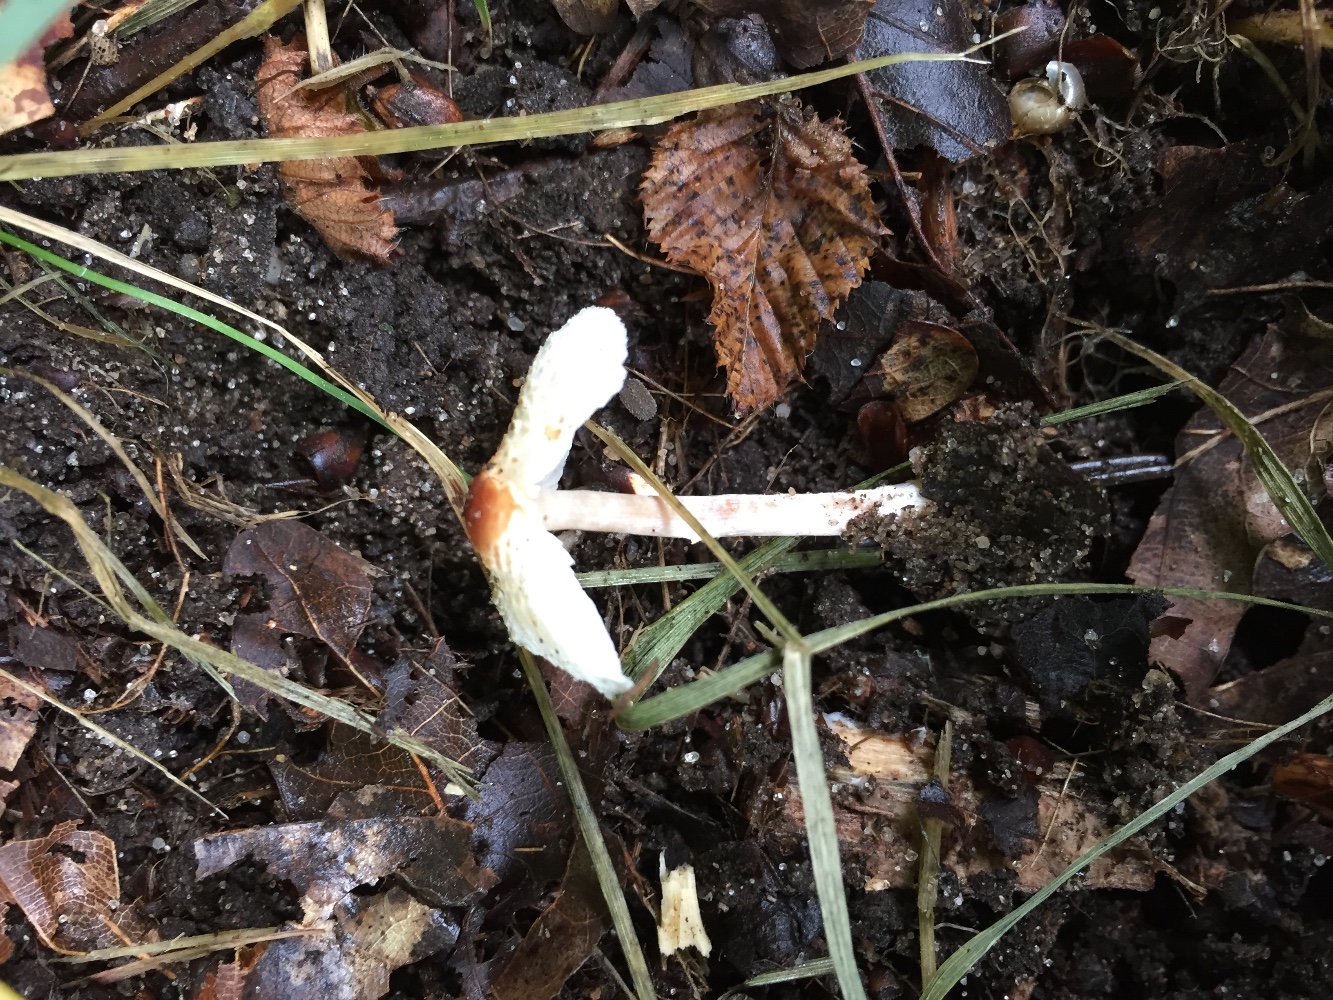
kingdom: Fungi
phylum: Basidiomycota
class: Agaricomycetes
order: Agaricales
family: Agaricaceae
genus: Lepiota
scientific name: Lepiota cristata
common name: stinkende parasolhat
